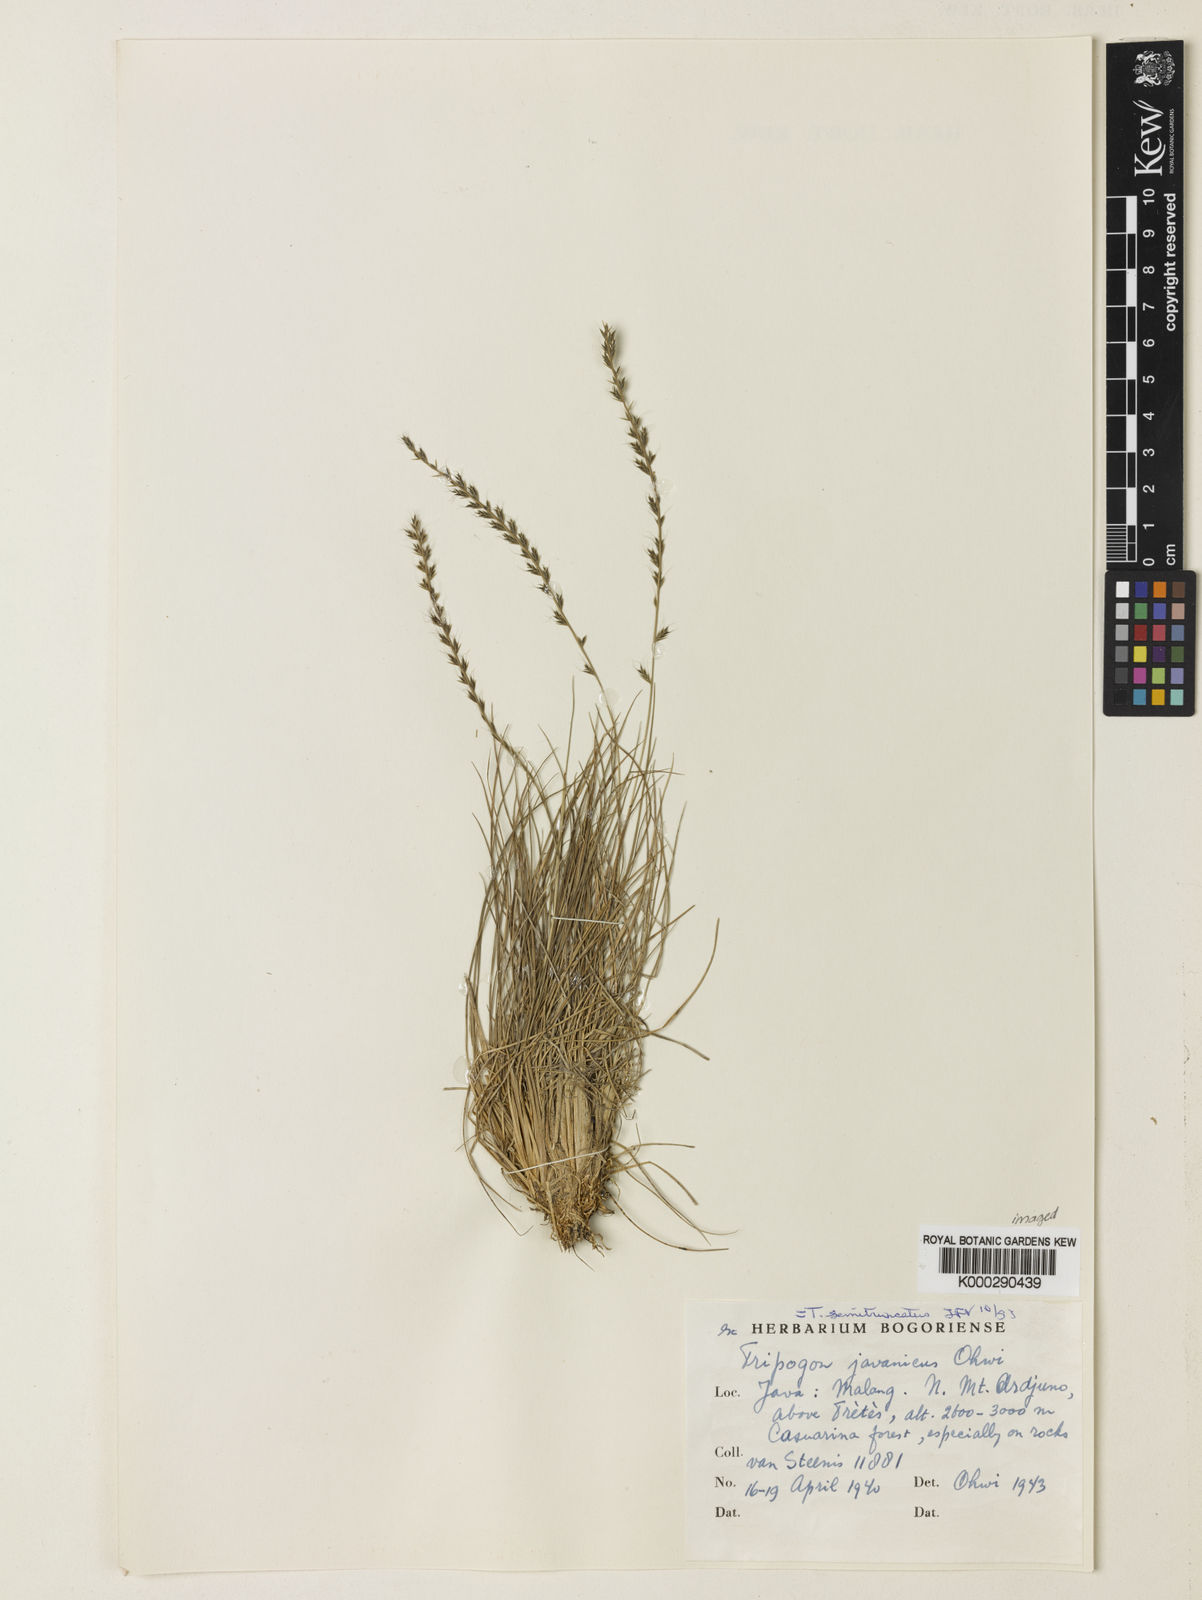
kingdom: Plantae
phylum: Tracheophyta
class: Liliopsida
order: Poales
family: Poaceae
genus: Tripogon
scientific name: Tripogon filiformis
